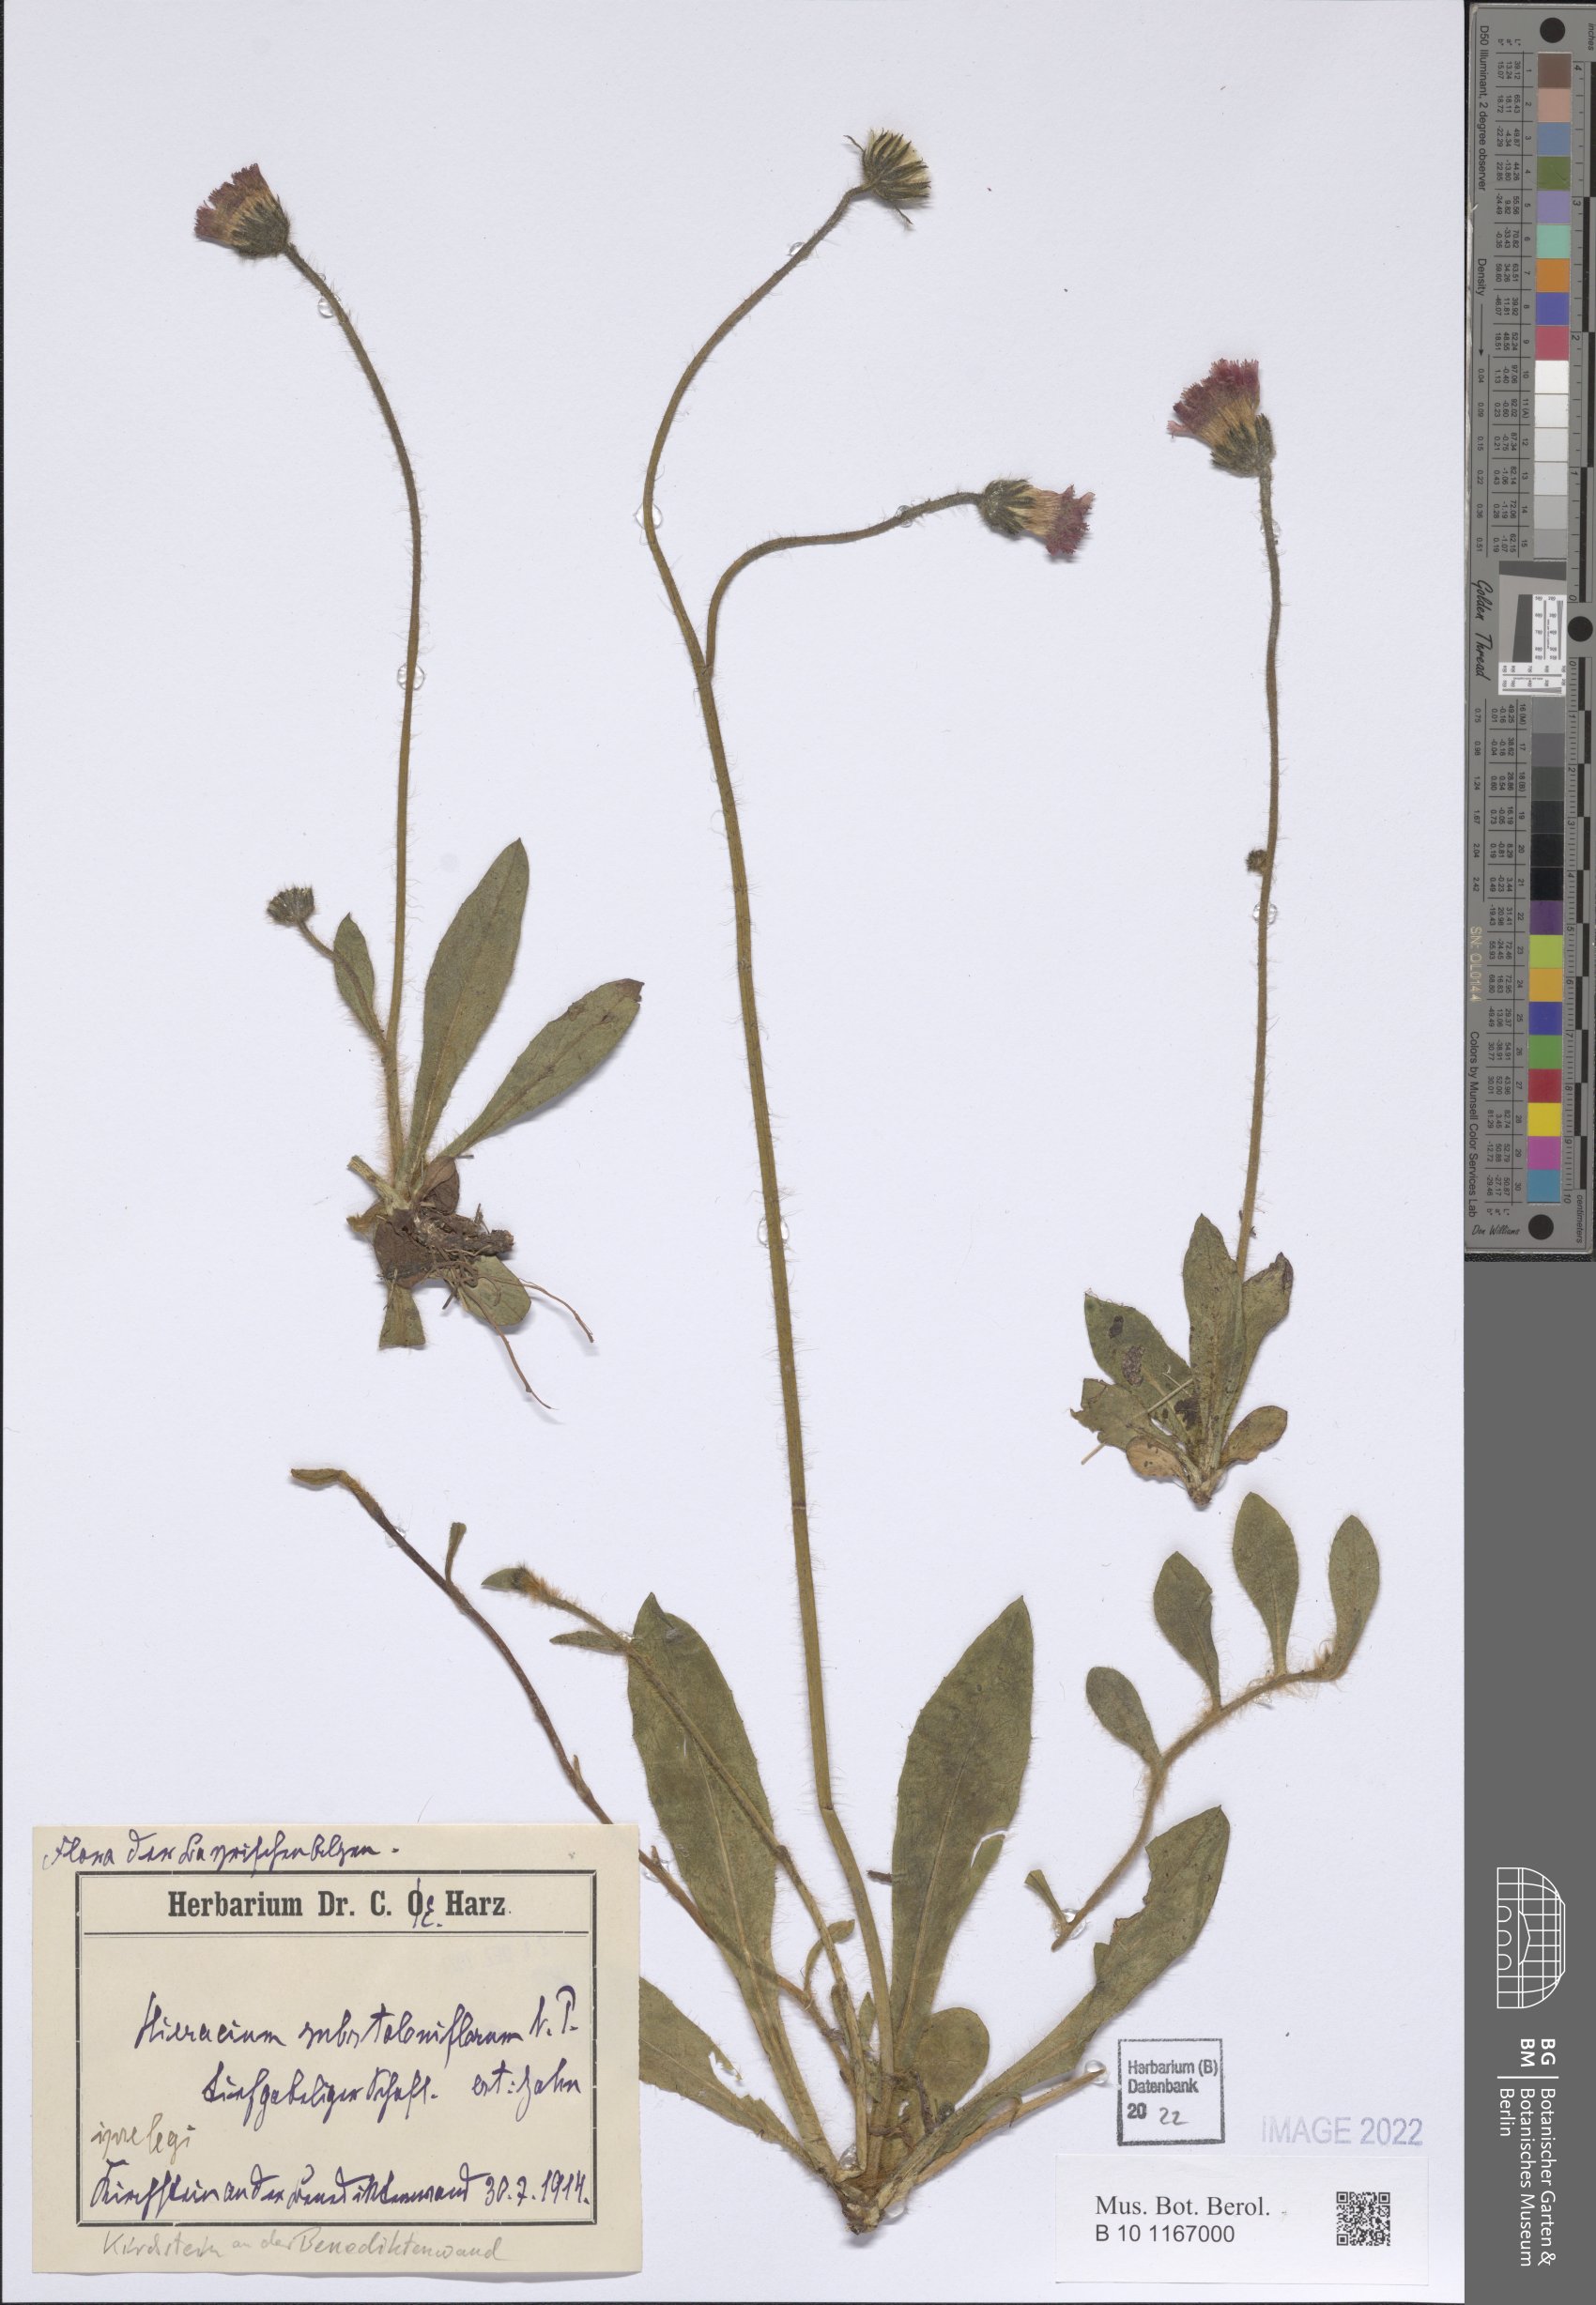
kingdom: Plantae
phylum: Tracheophyta
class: Magnoliopsida
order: Asterales
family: Asteraceae
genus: Pilosella
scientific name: Pilosella substoloniflora
